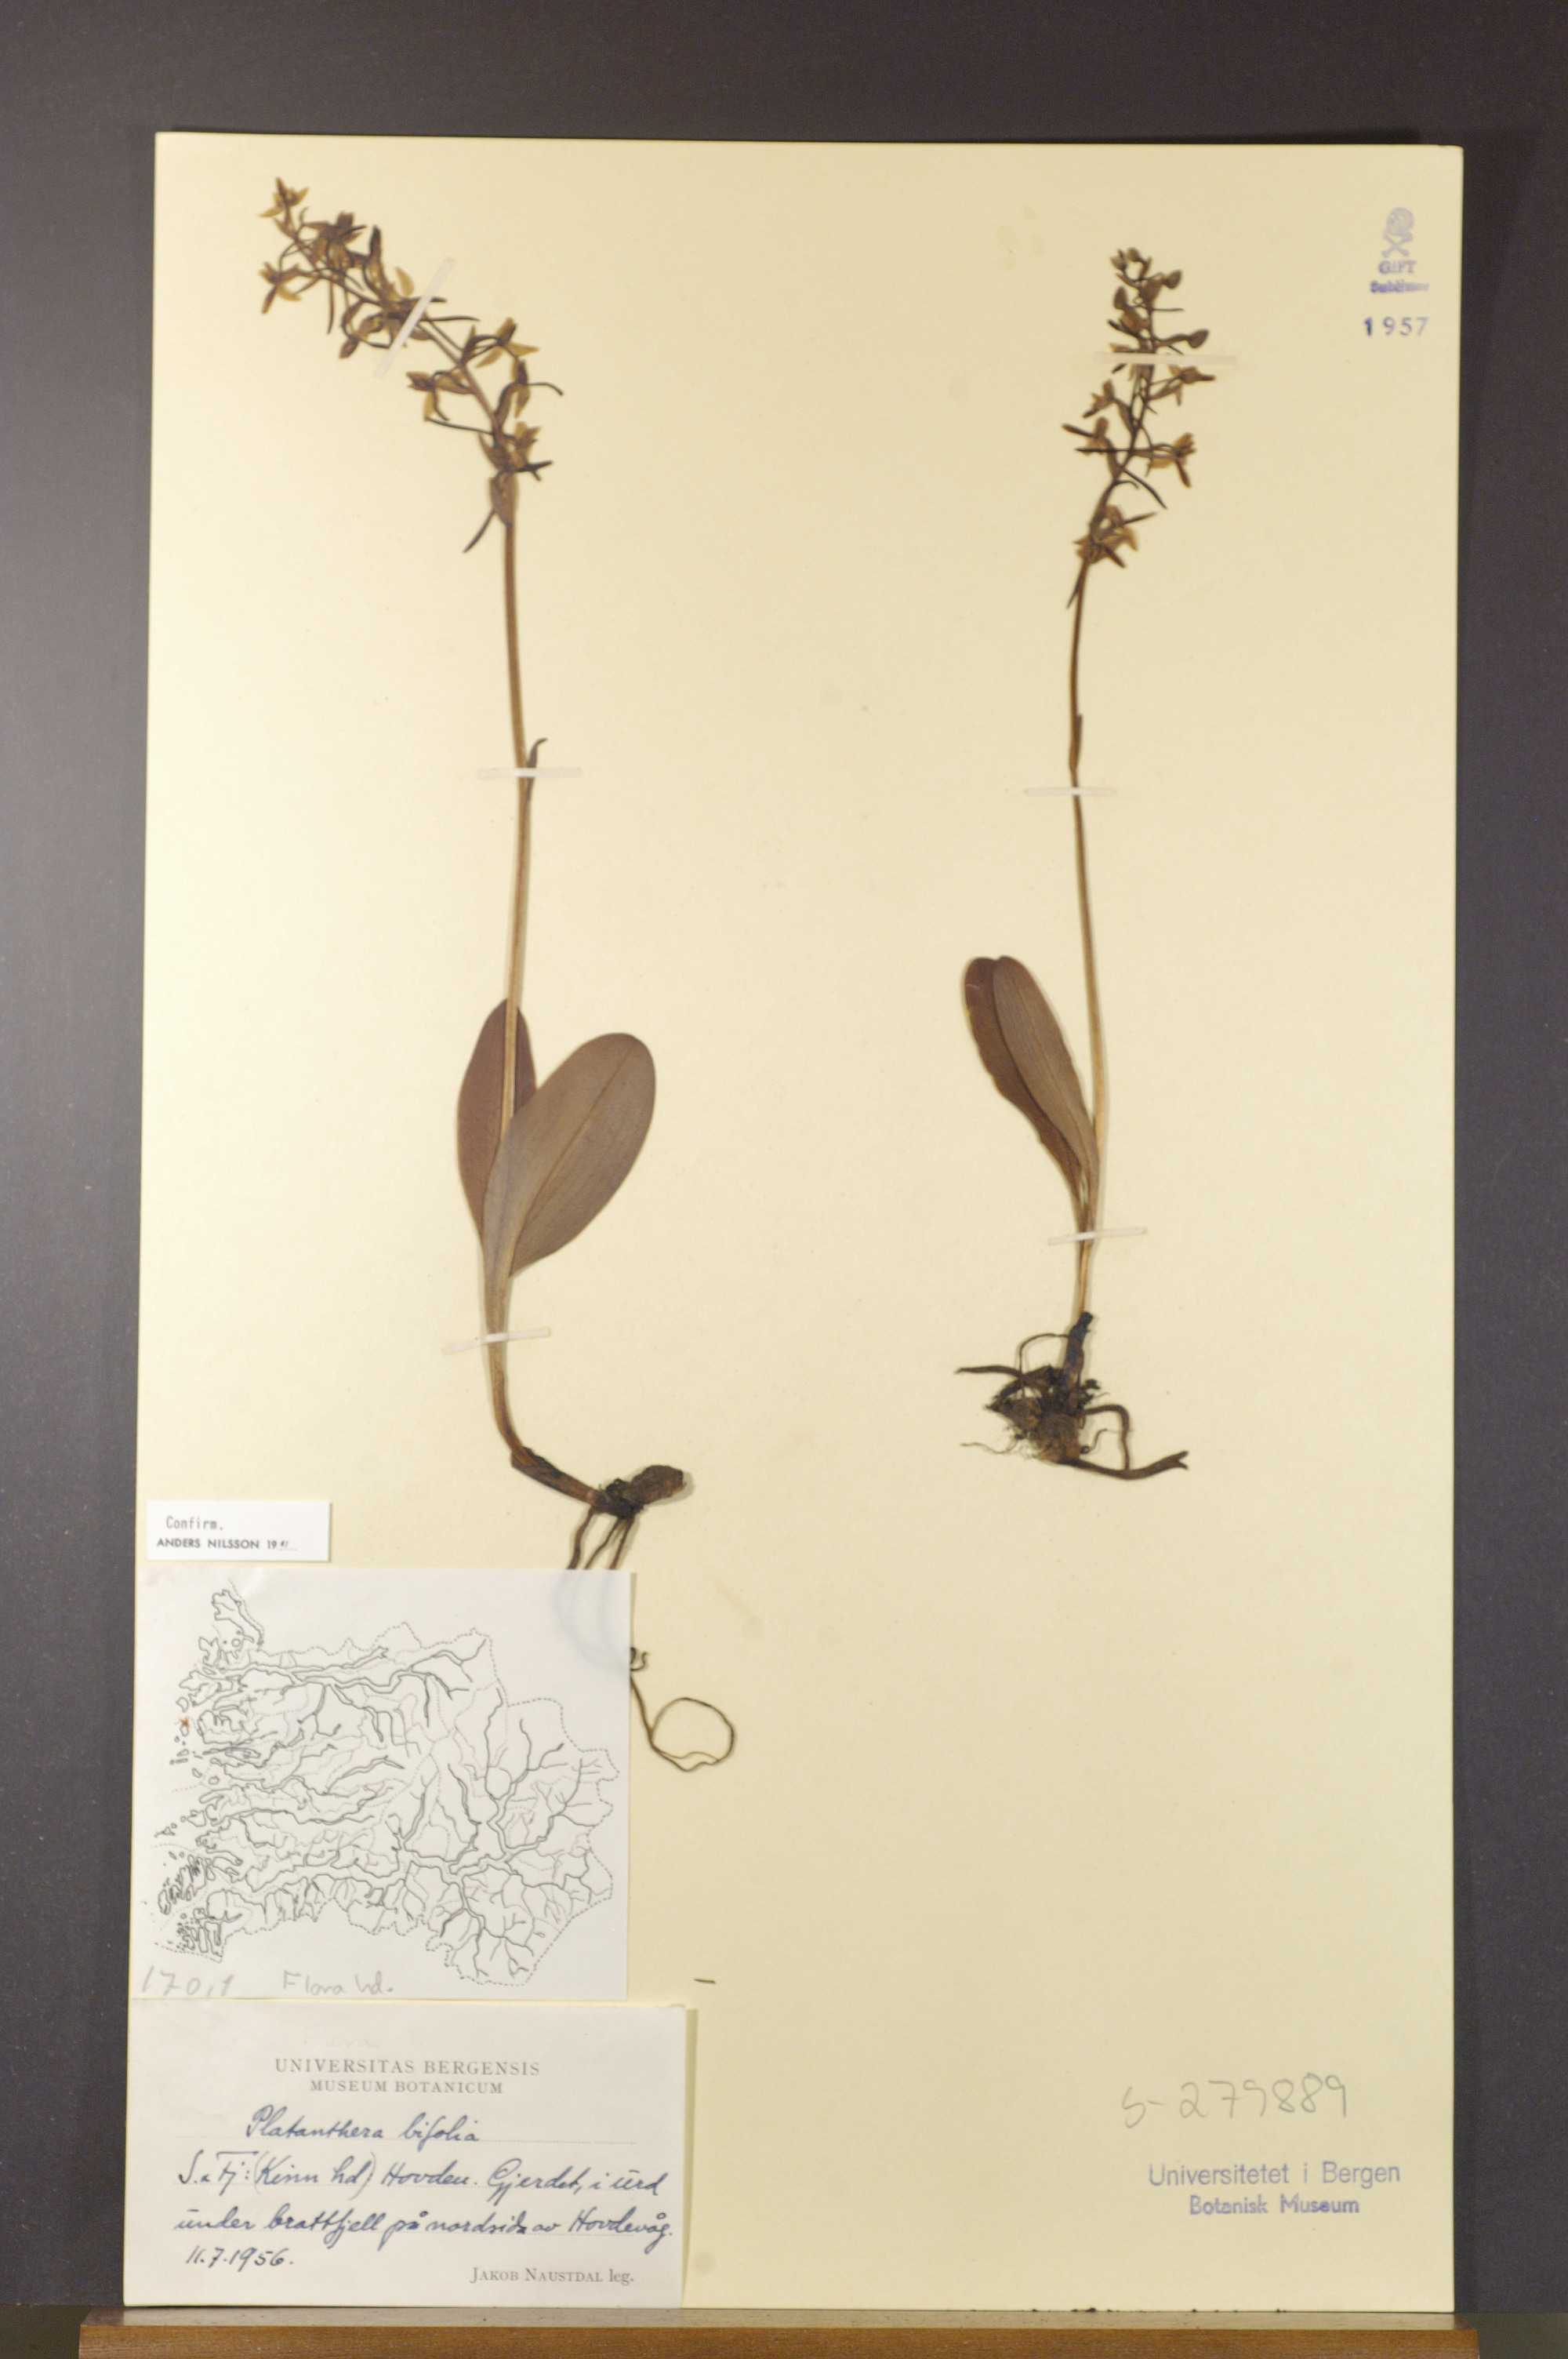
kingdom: Plantae
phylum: Tracheophyta
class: Liliopsida
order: Asparagales
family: Orchidaceae
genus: Platanthera
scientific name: Platanthera bifolia
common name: Lesser butterfly-orchid
